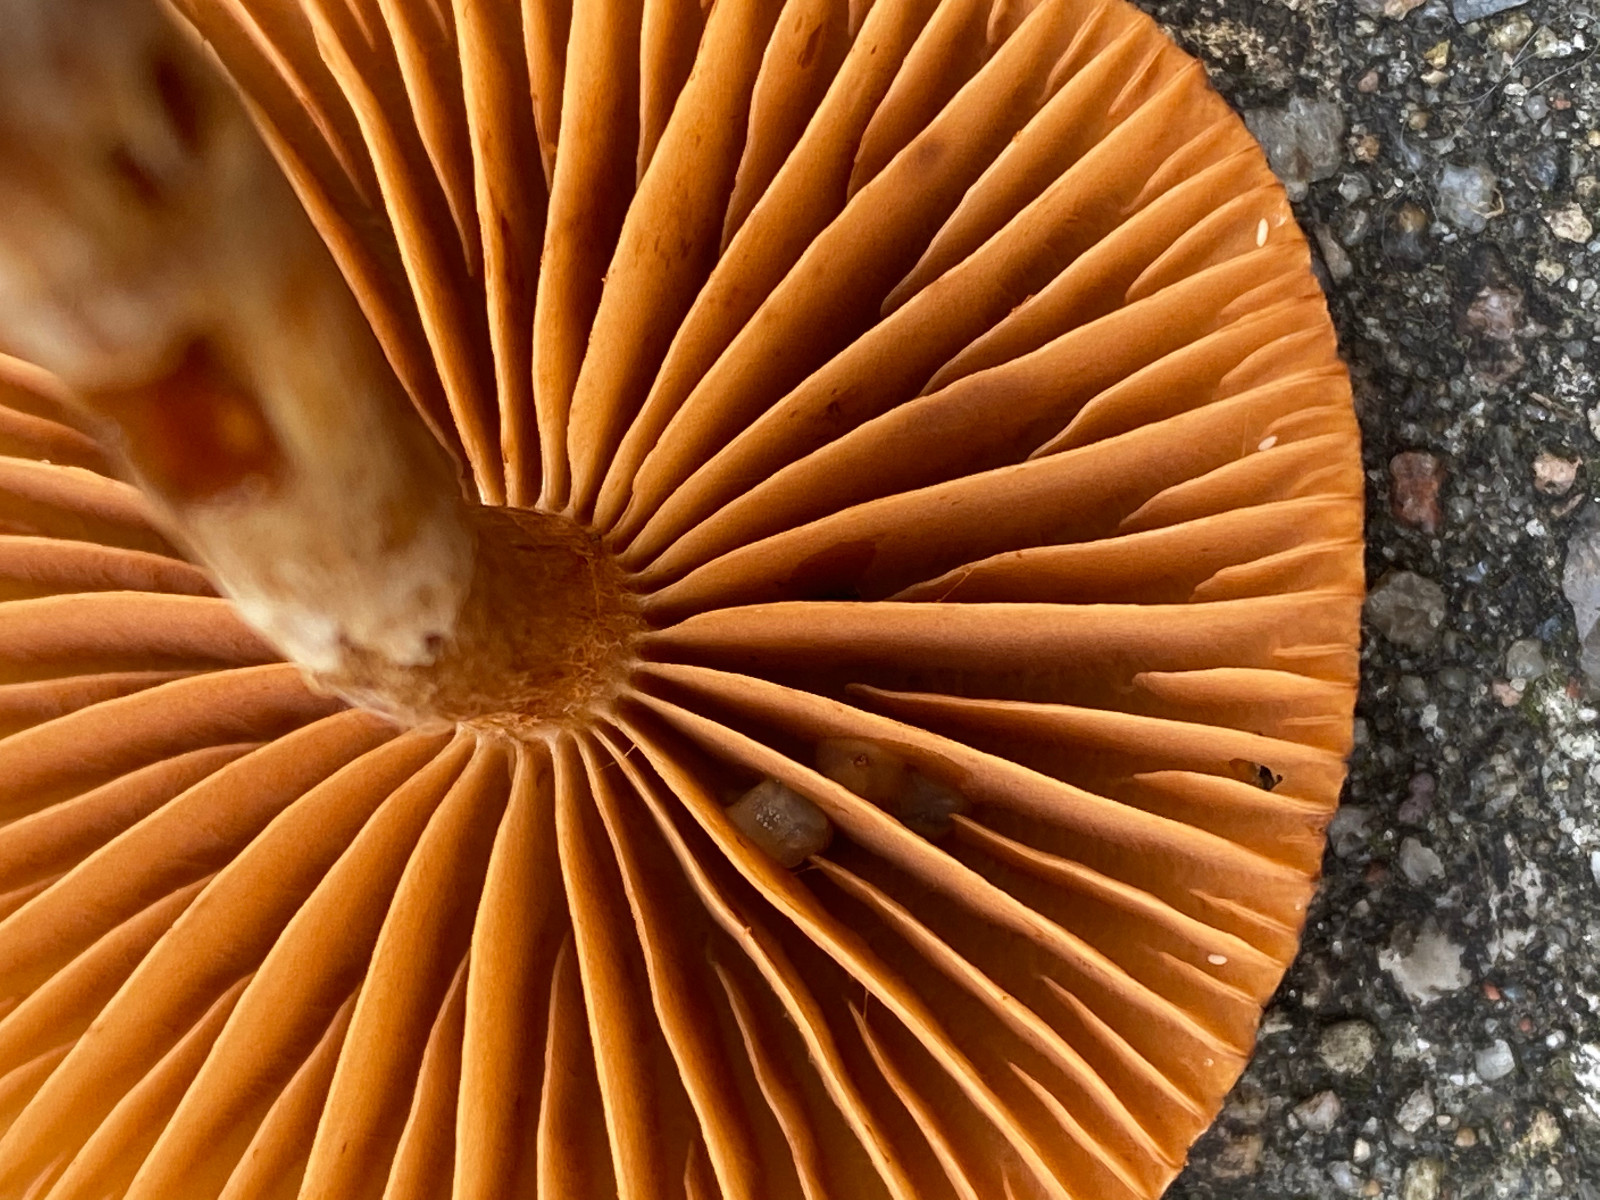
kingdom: Fungi
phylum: Basidiomycota
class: Agaricomycetes
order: Agaricales
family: Cortinariaceae
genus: Cortinarius
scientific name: Cortinarius
